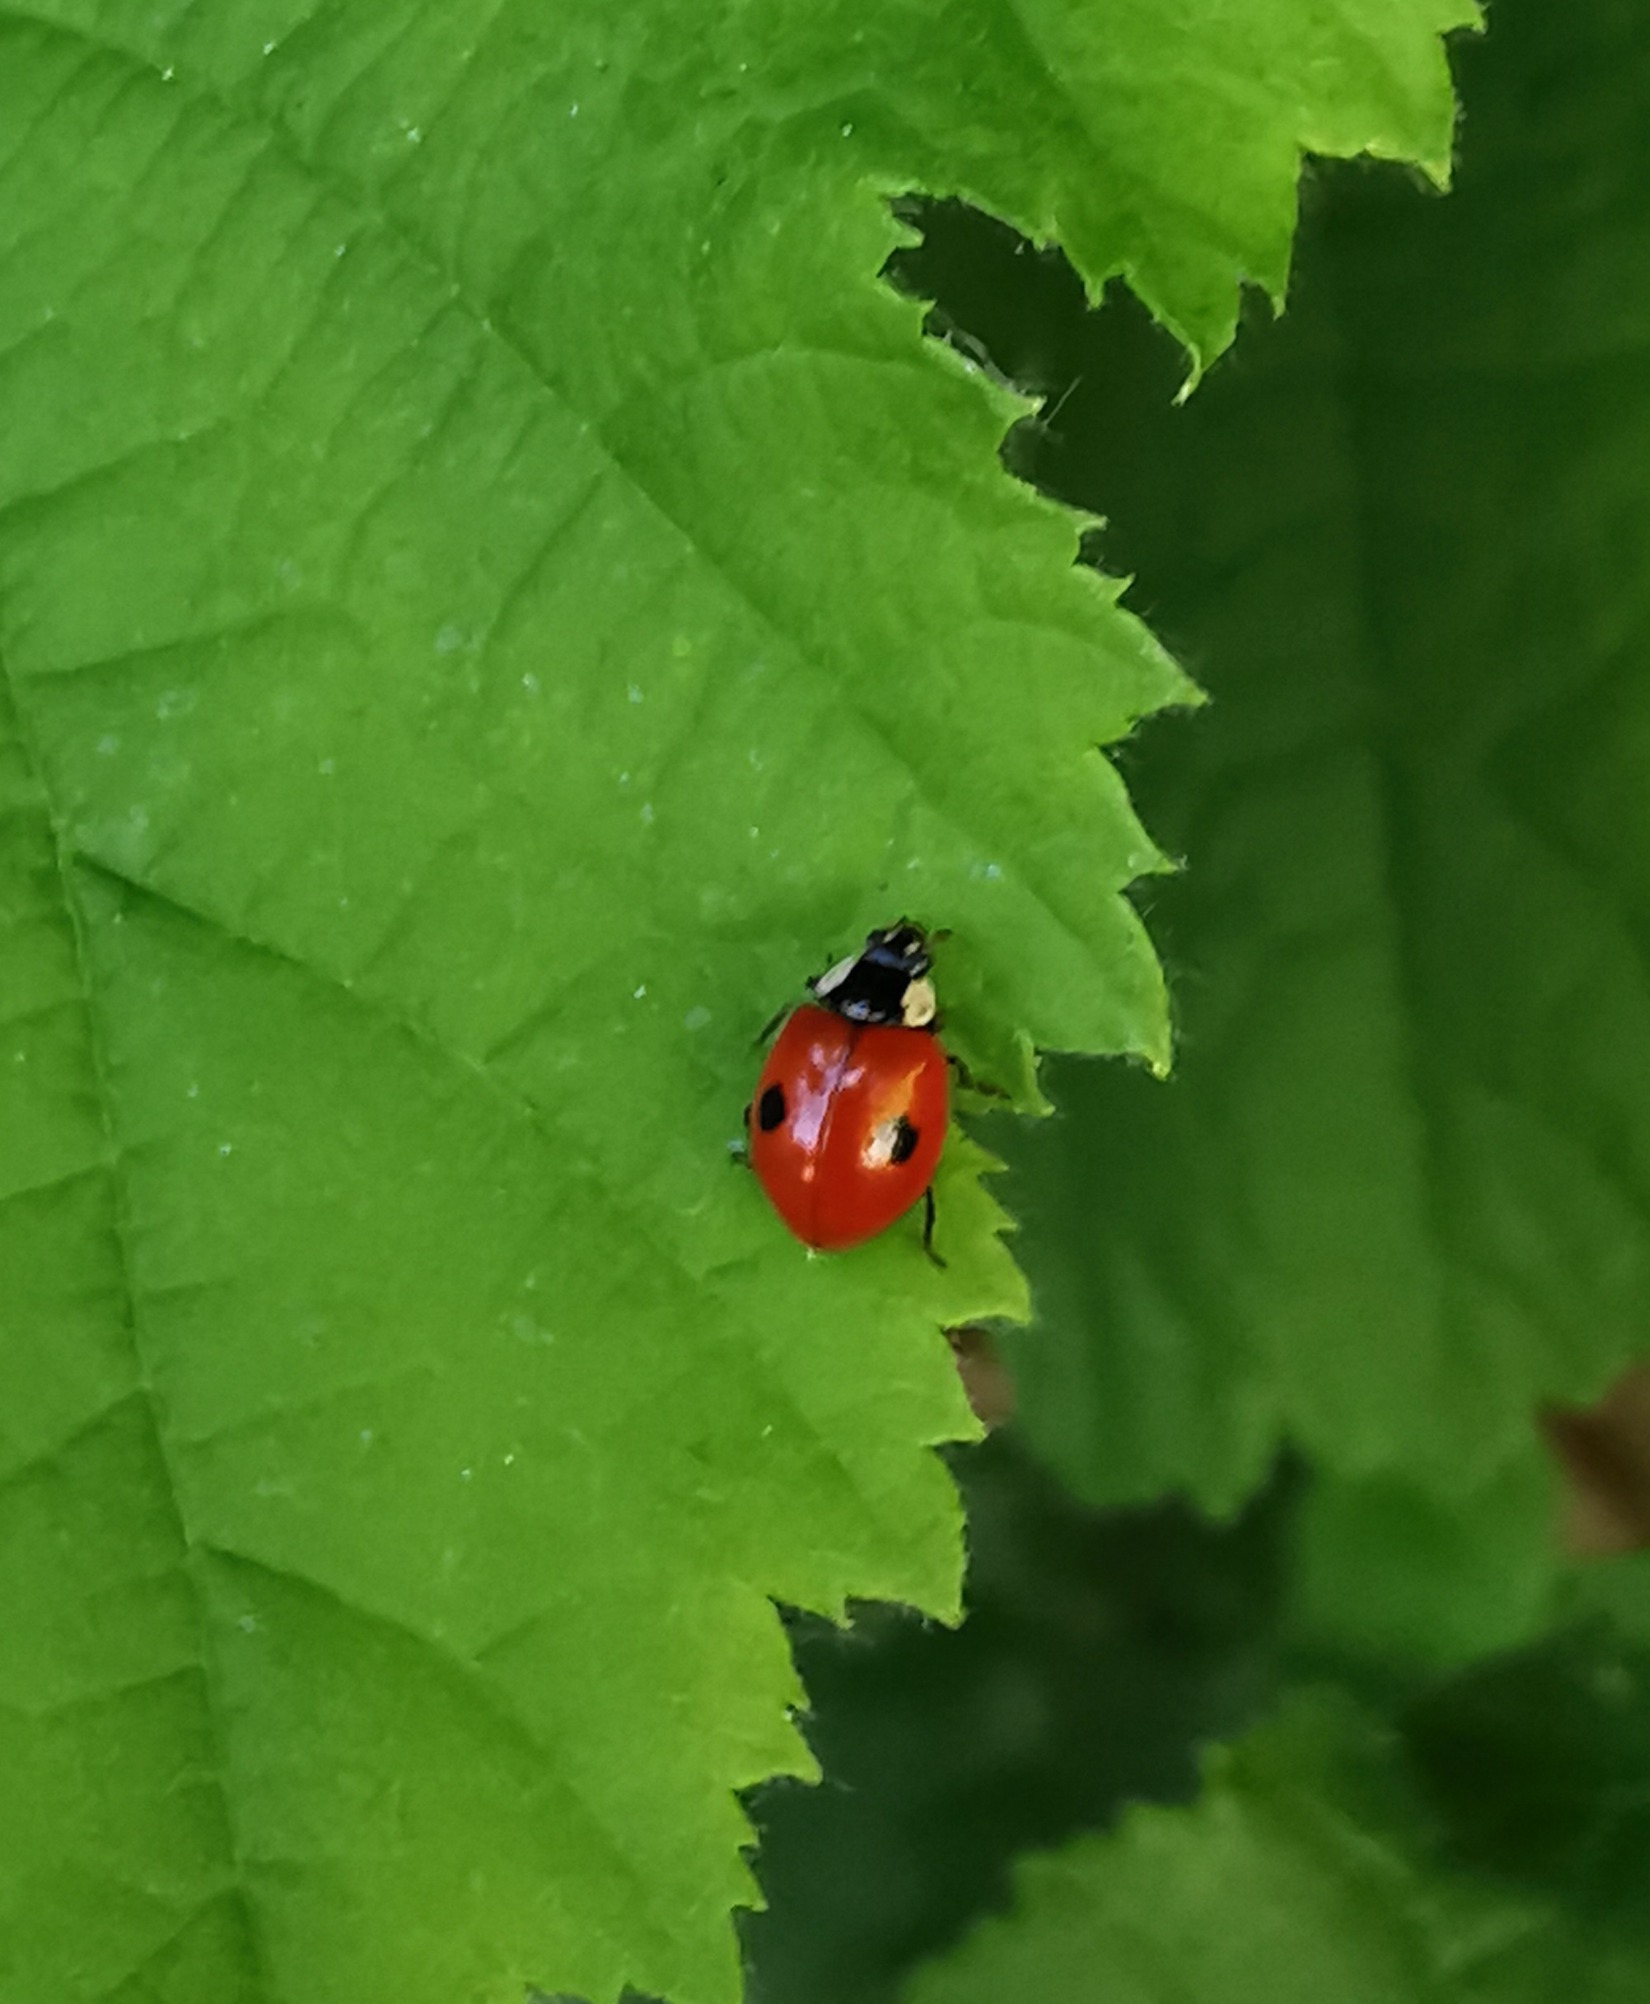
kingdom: Animalia
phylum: Arthropoda
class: Insecta
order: Coleoptera
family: Coccinellidae
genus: Adalia
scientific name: Adalia bipunctata
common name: Toplettet mariehøne
